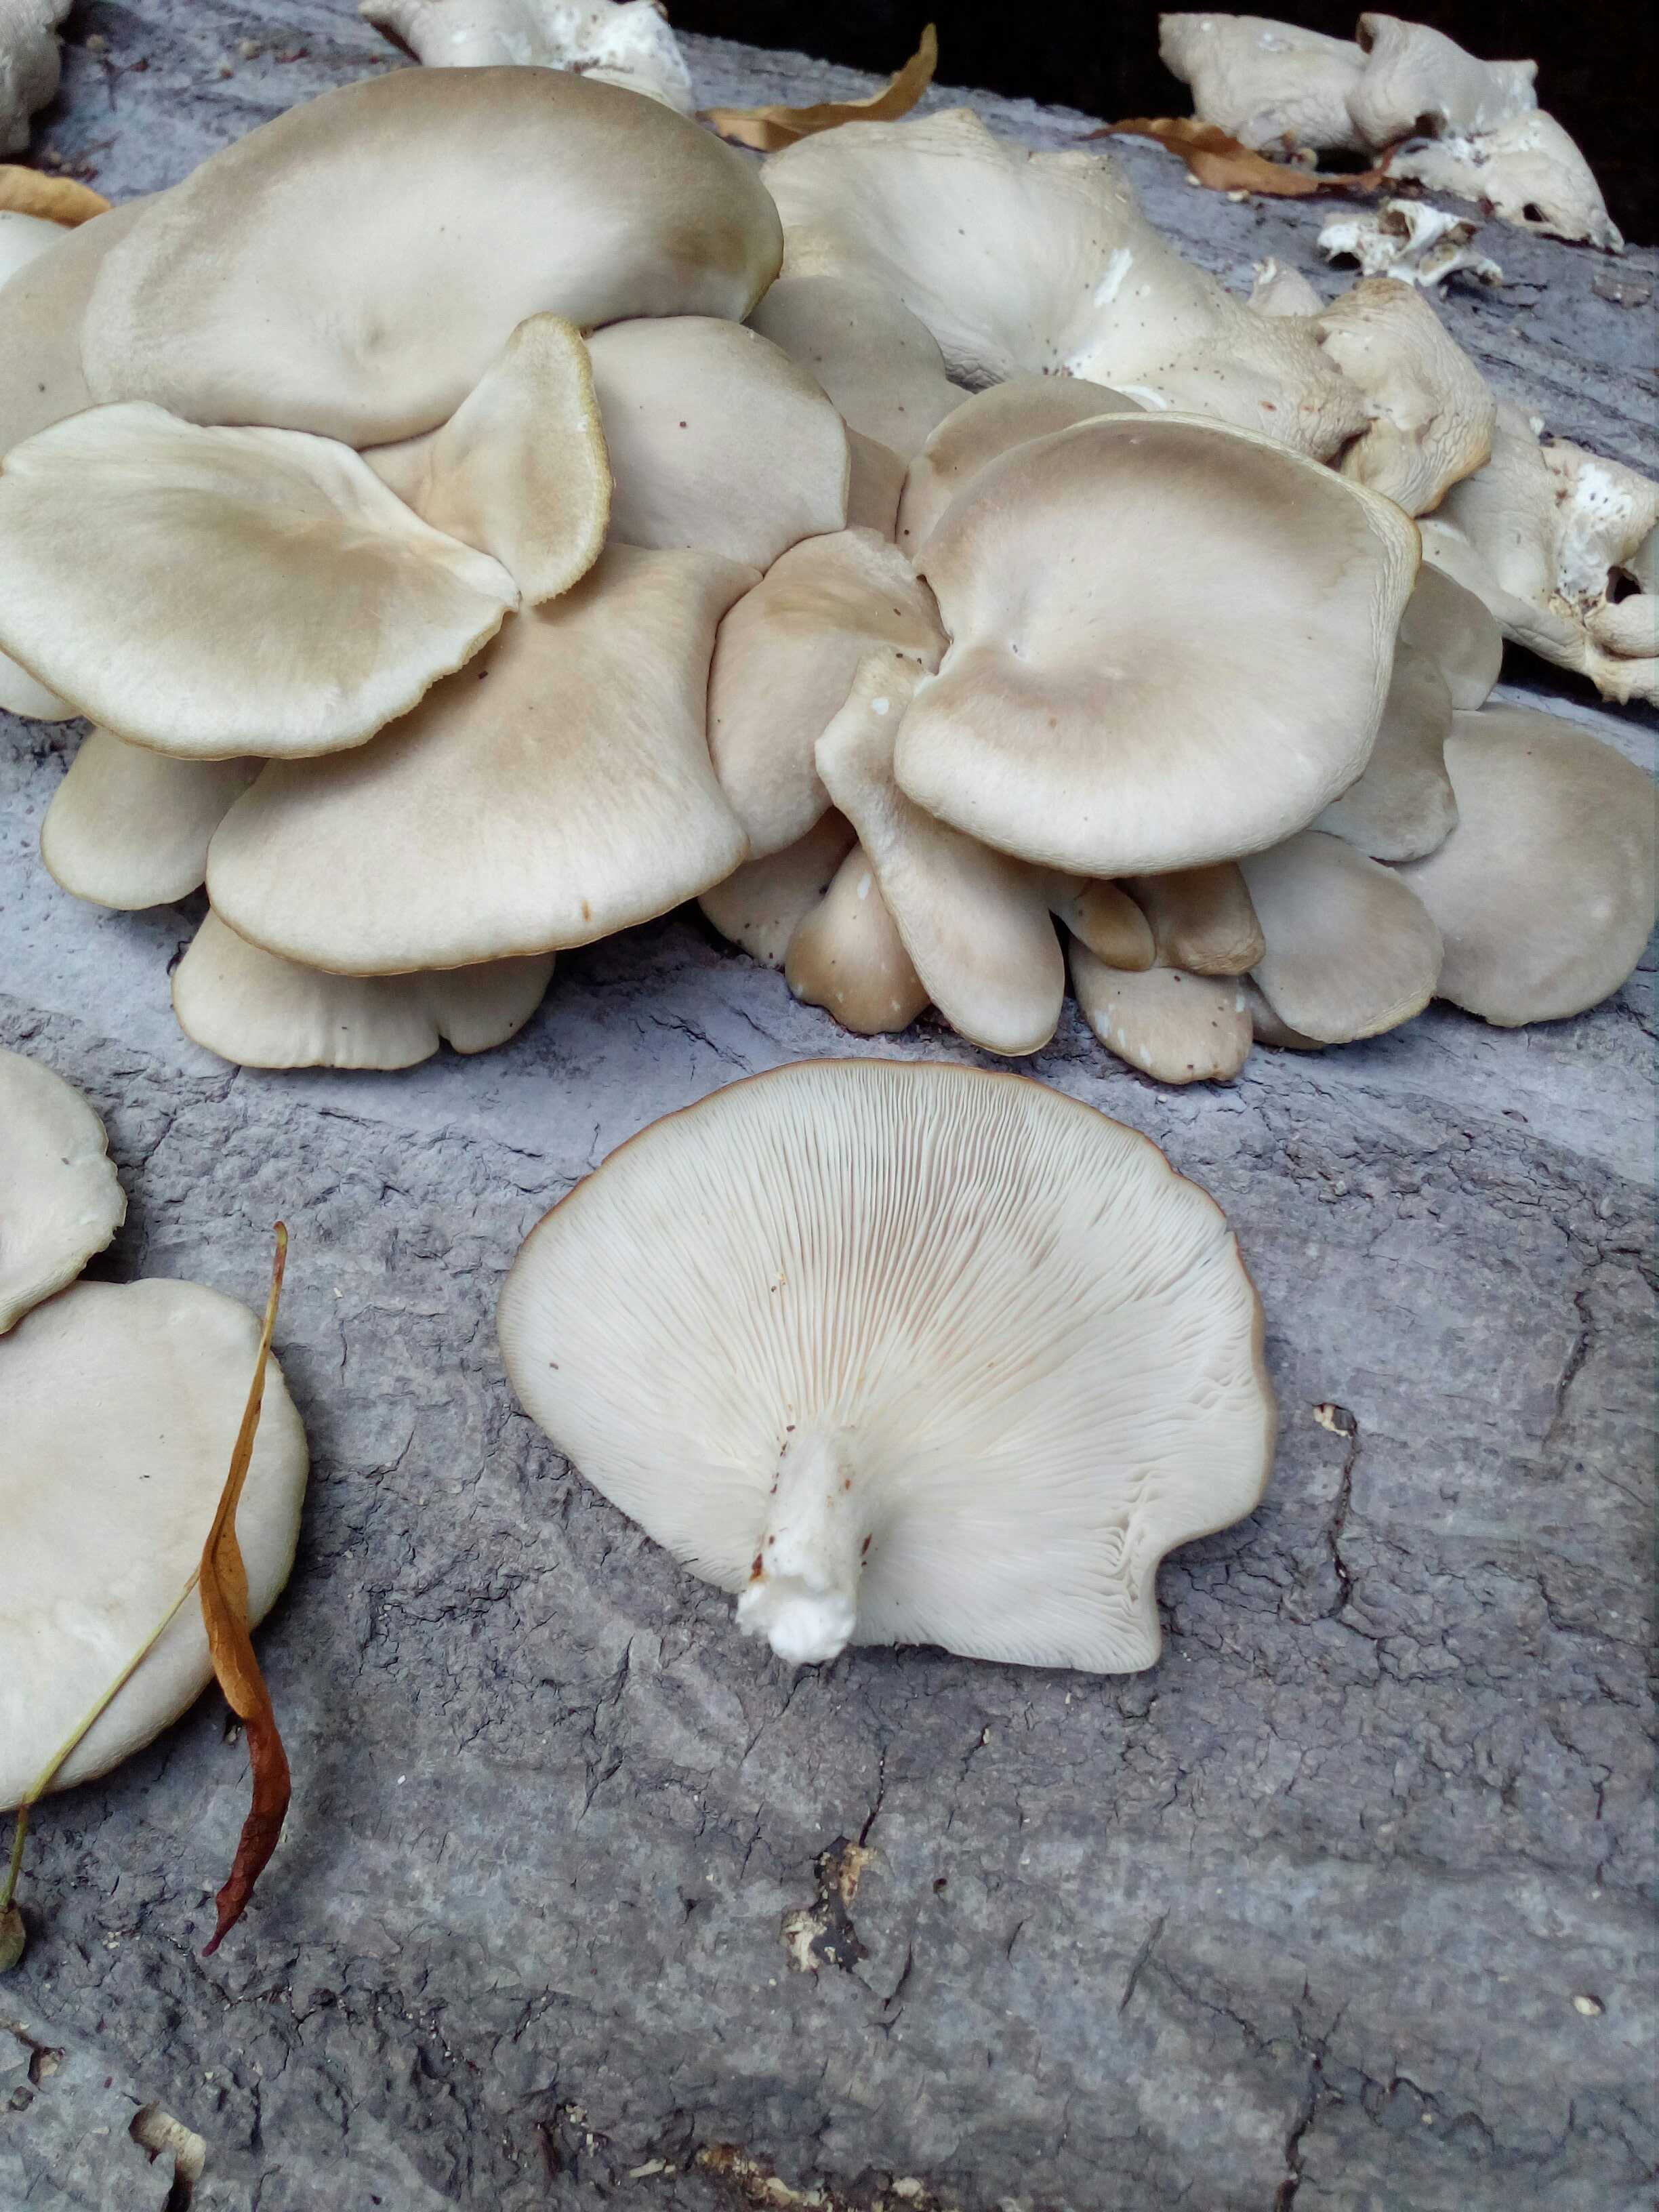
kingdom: Fungi
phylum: Basidiomycota
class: Agaricomycetes
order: Agaricales
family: Pleurotaceae
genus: Pleurotus
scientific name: Pleurotus pulmonarius
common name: sommer-østershat
